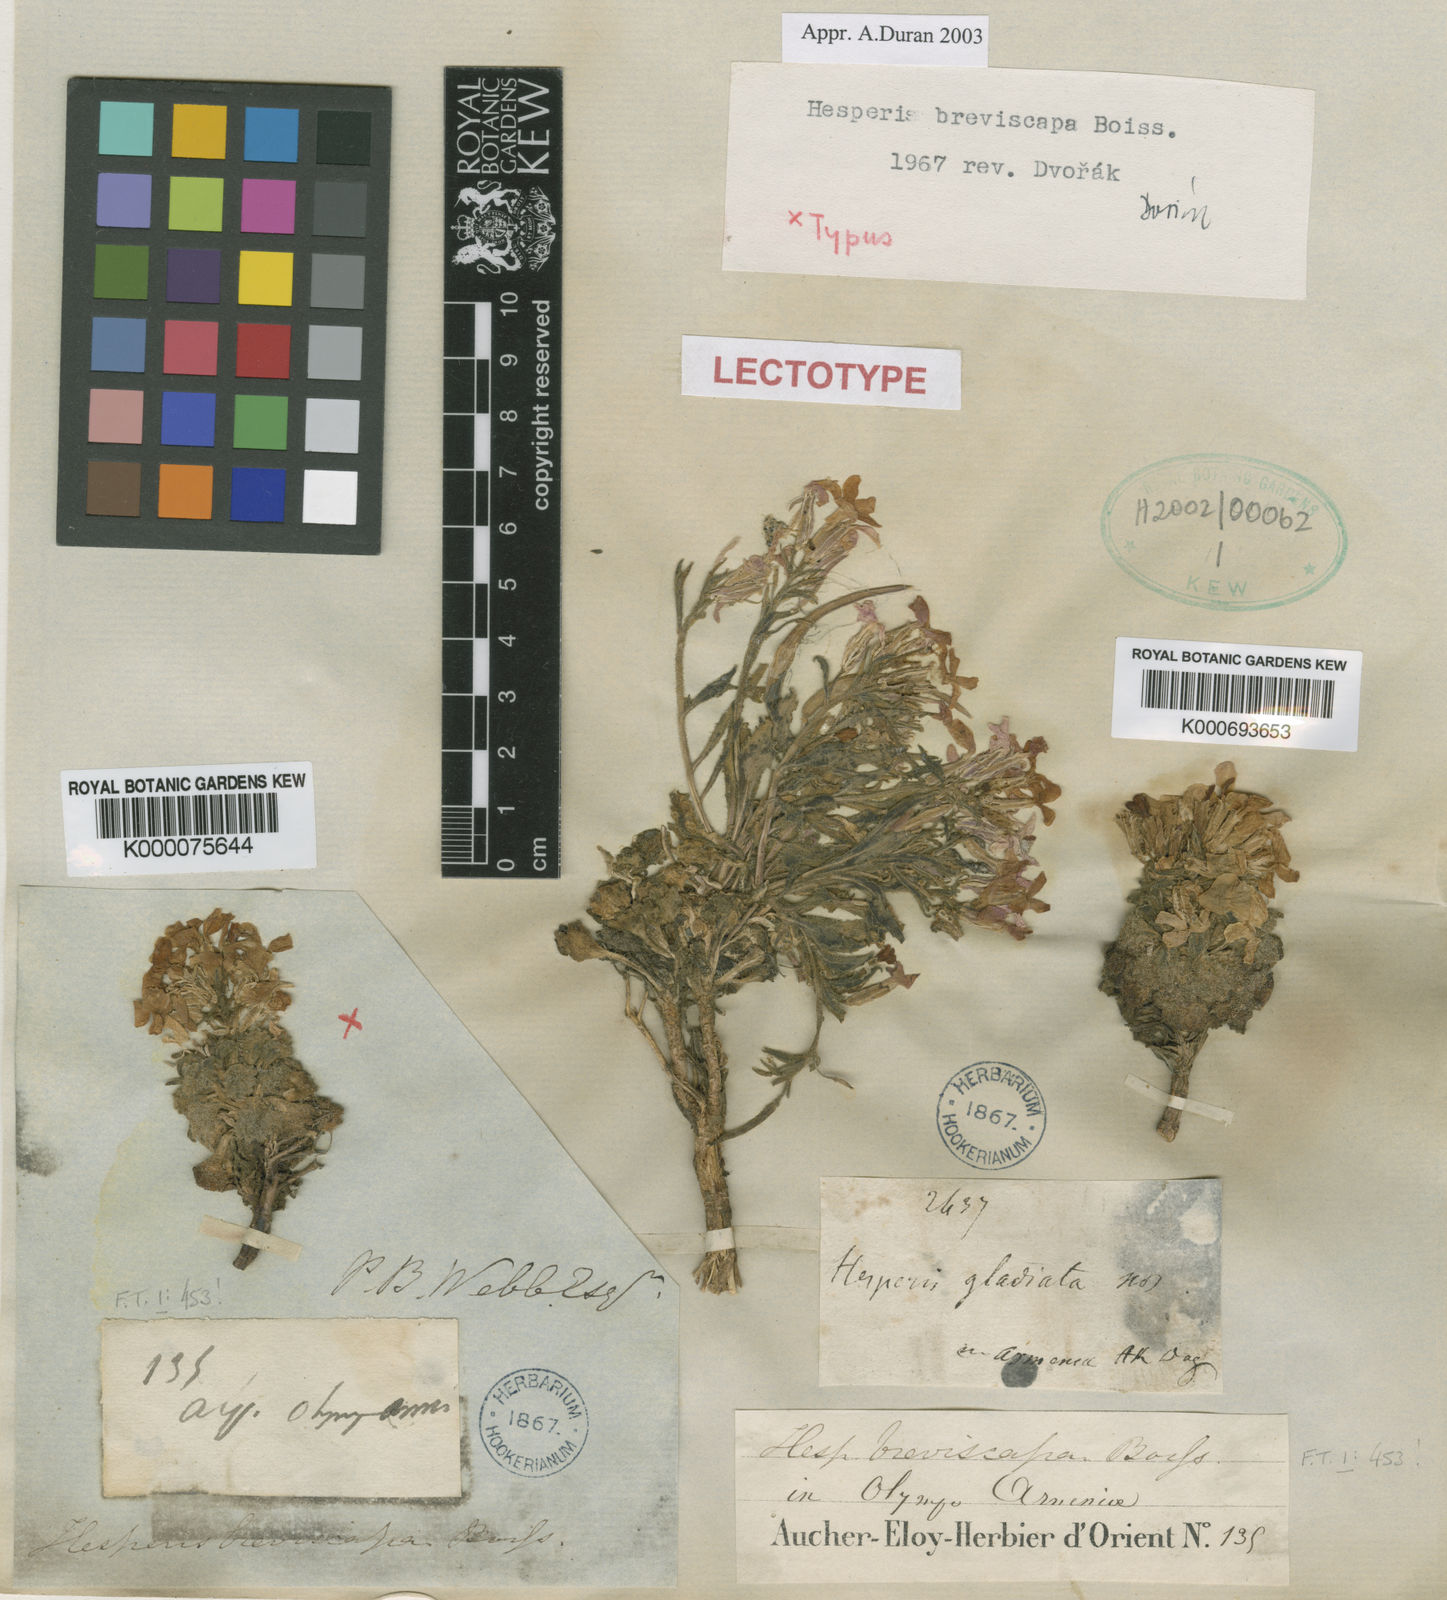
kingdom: Plantae
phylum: Tracheophyta
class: Magnoliopsida
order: Brassicales
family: Brassicaceae
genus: Hesperis
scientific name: Hesperis breviscapa
